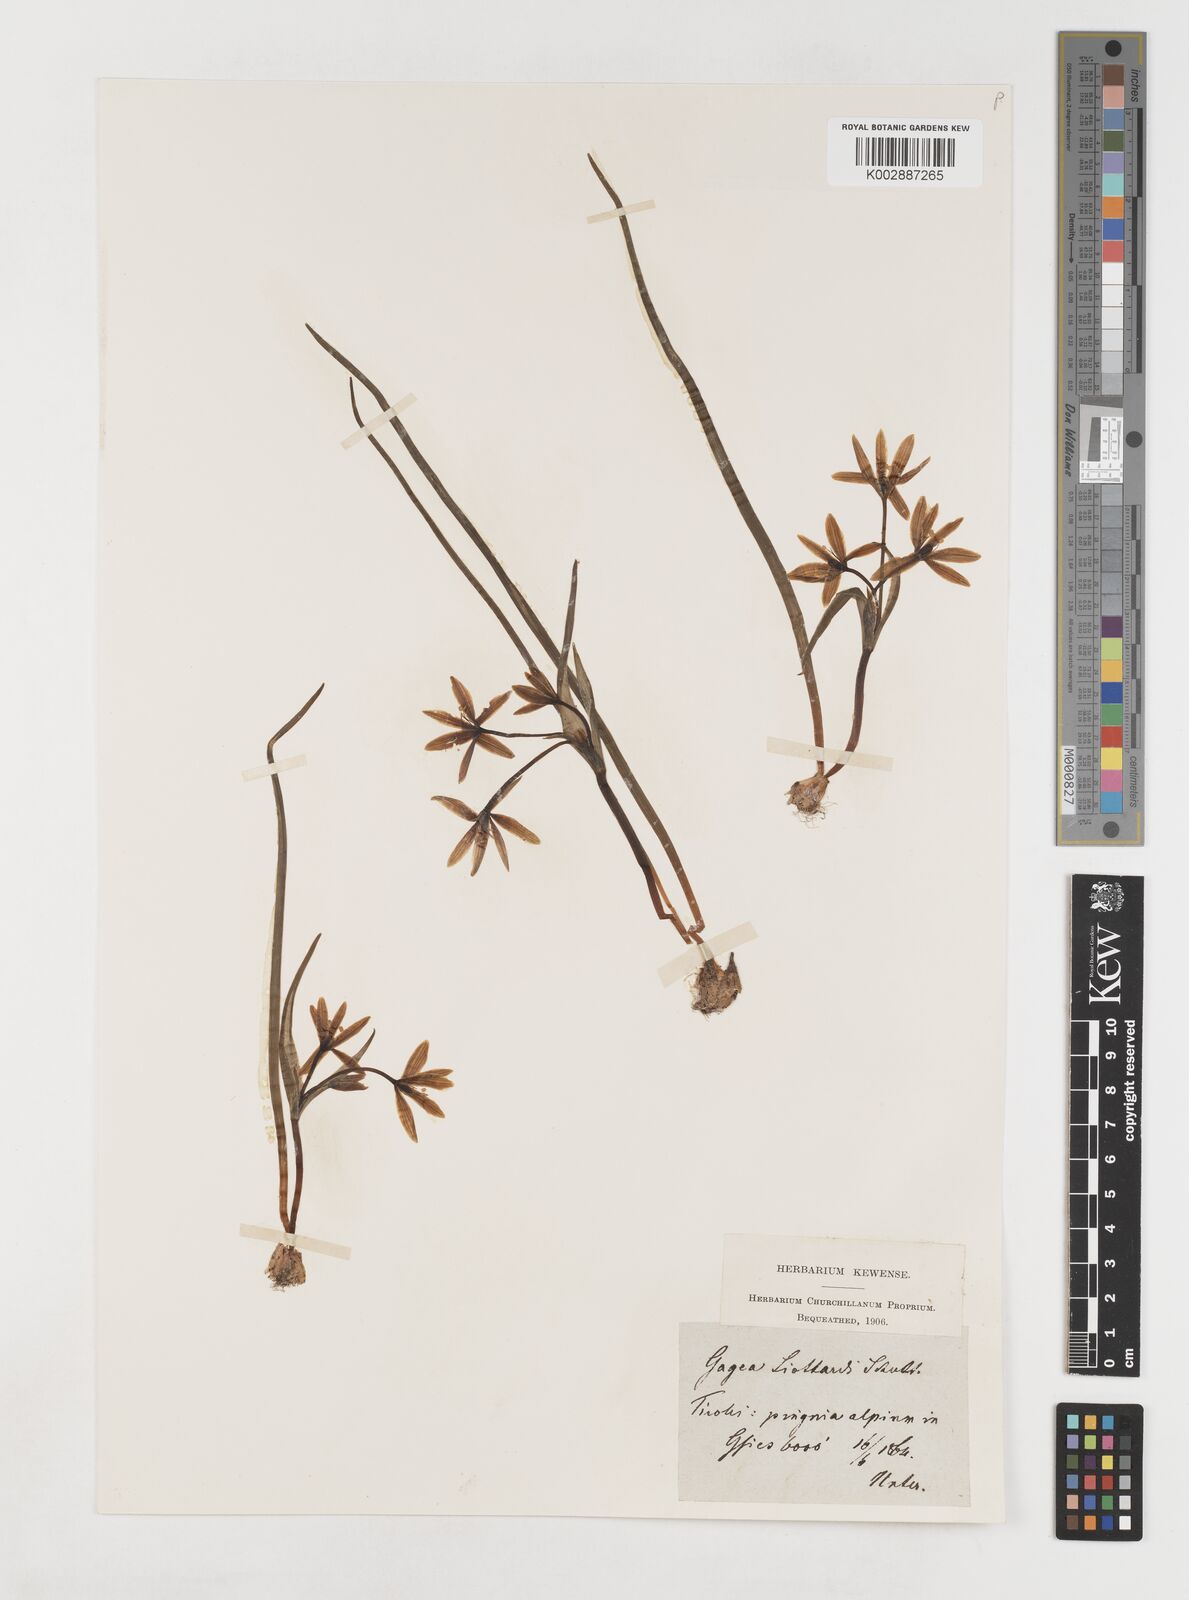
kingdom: Plantae
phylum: Tracheophyta
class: Liliopsida
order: Liliales
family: Liliaceae
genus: Gagea
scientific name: Gagea bohemica
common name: Early star-of-bethlehem
